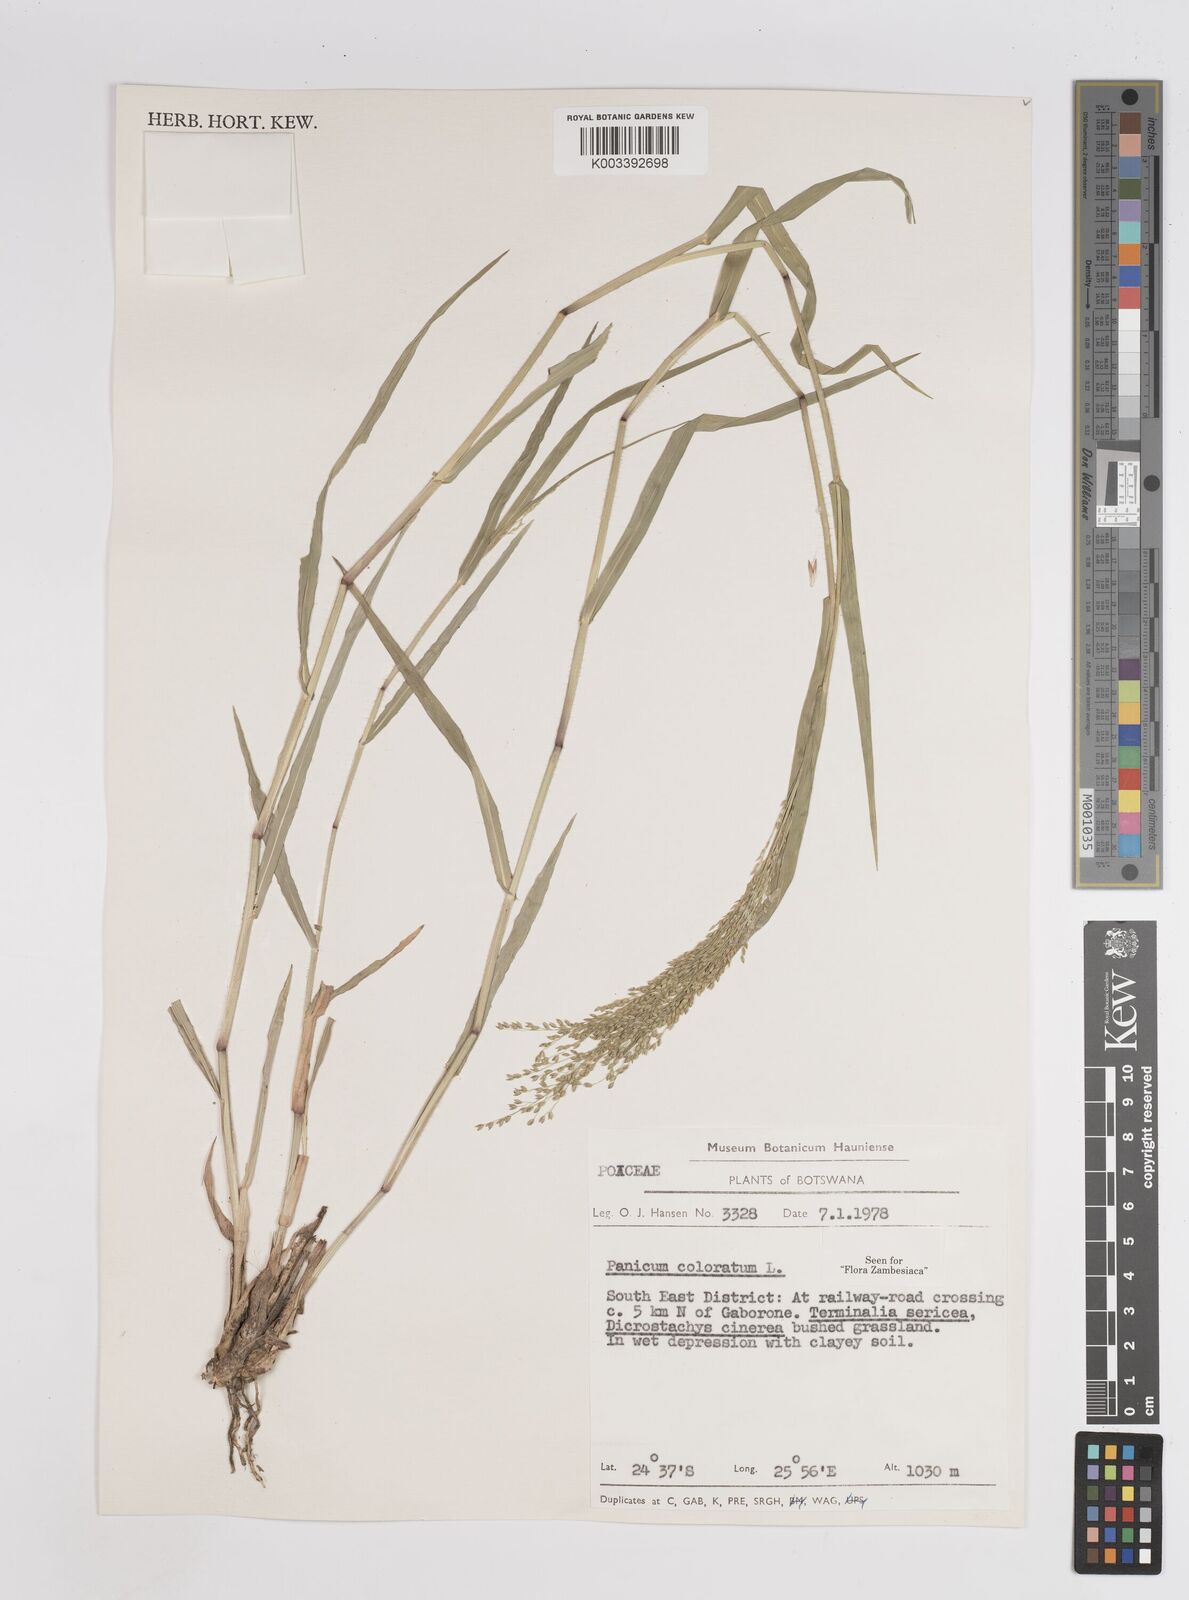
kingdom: Plantae
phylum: Tracheophyta
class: Liliopsida
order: Poales
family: Poaceae
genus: Panicum
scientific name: Panicum coloratum
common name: Kleingrass
